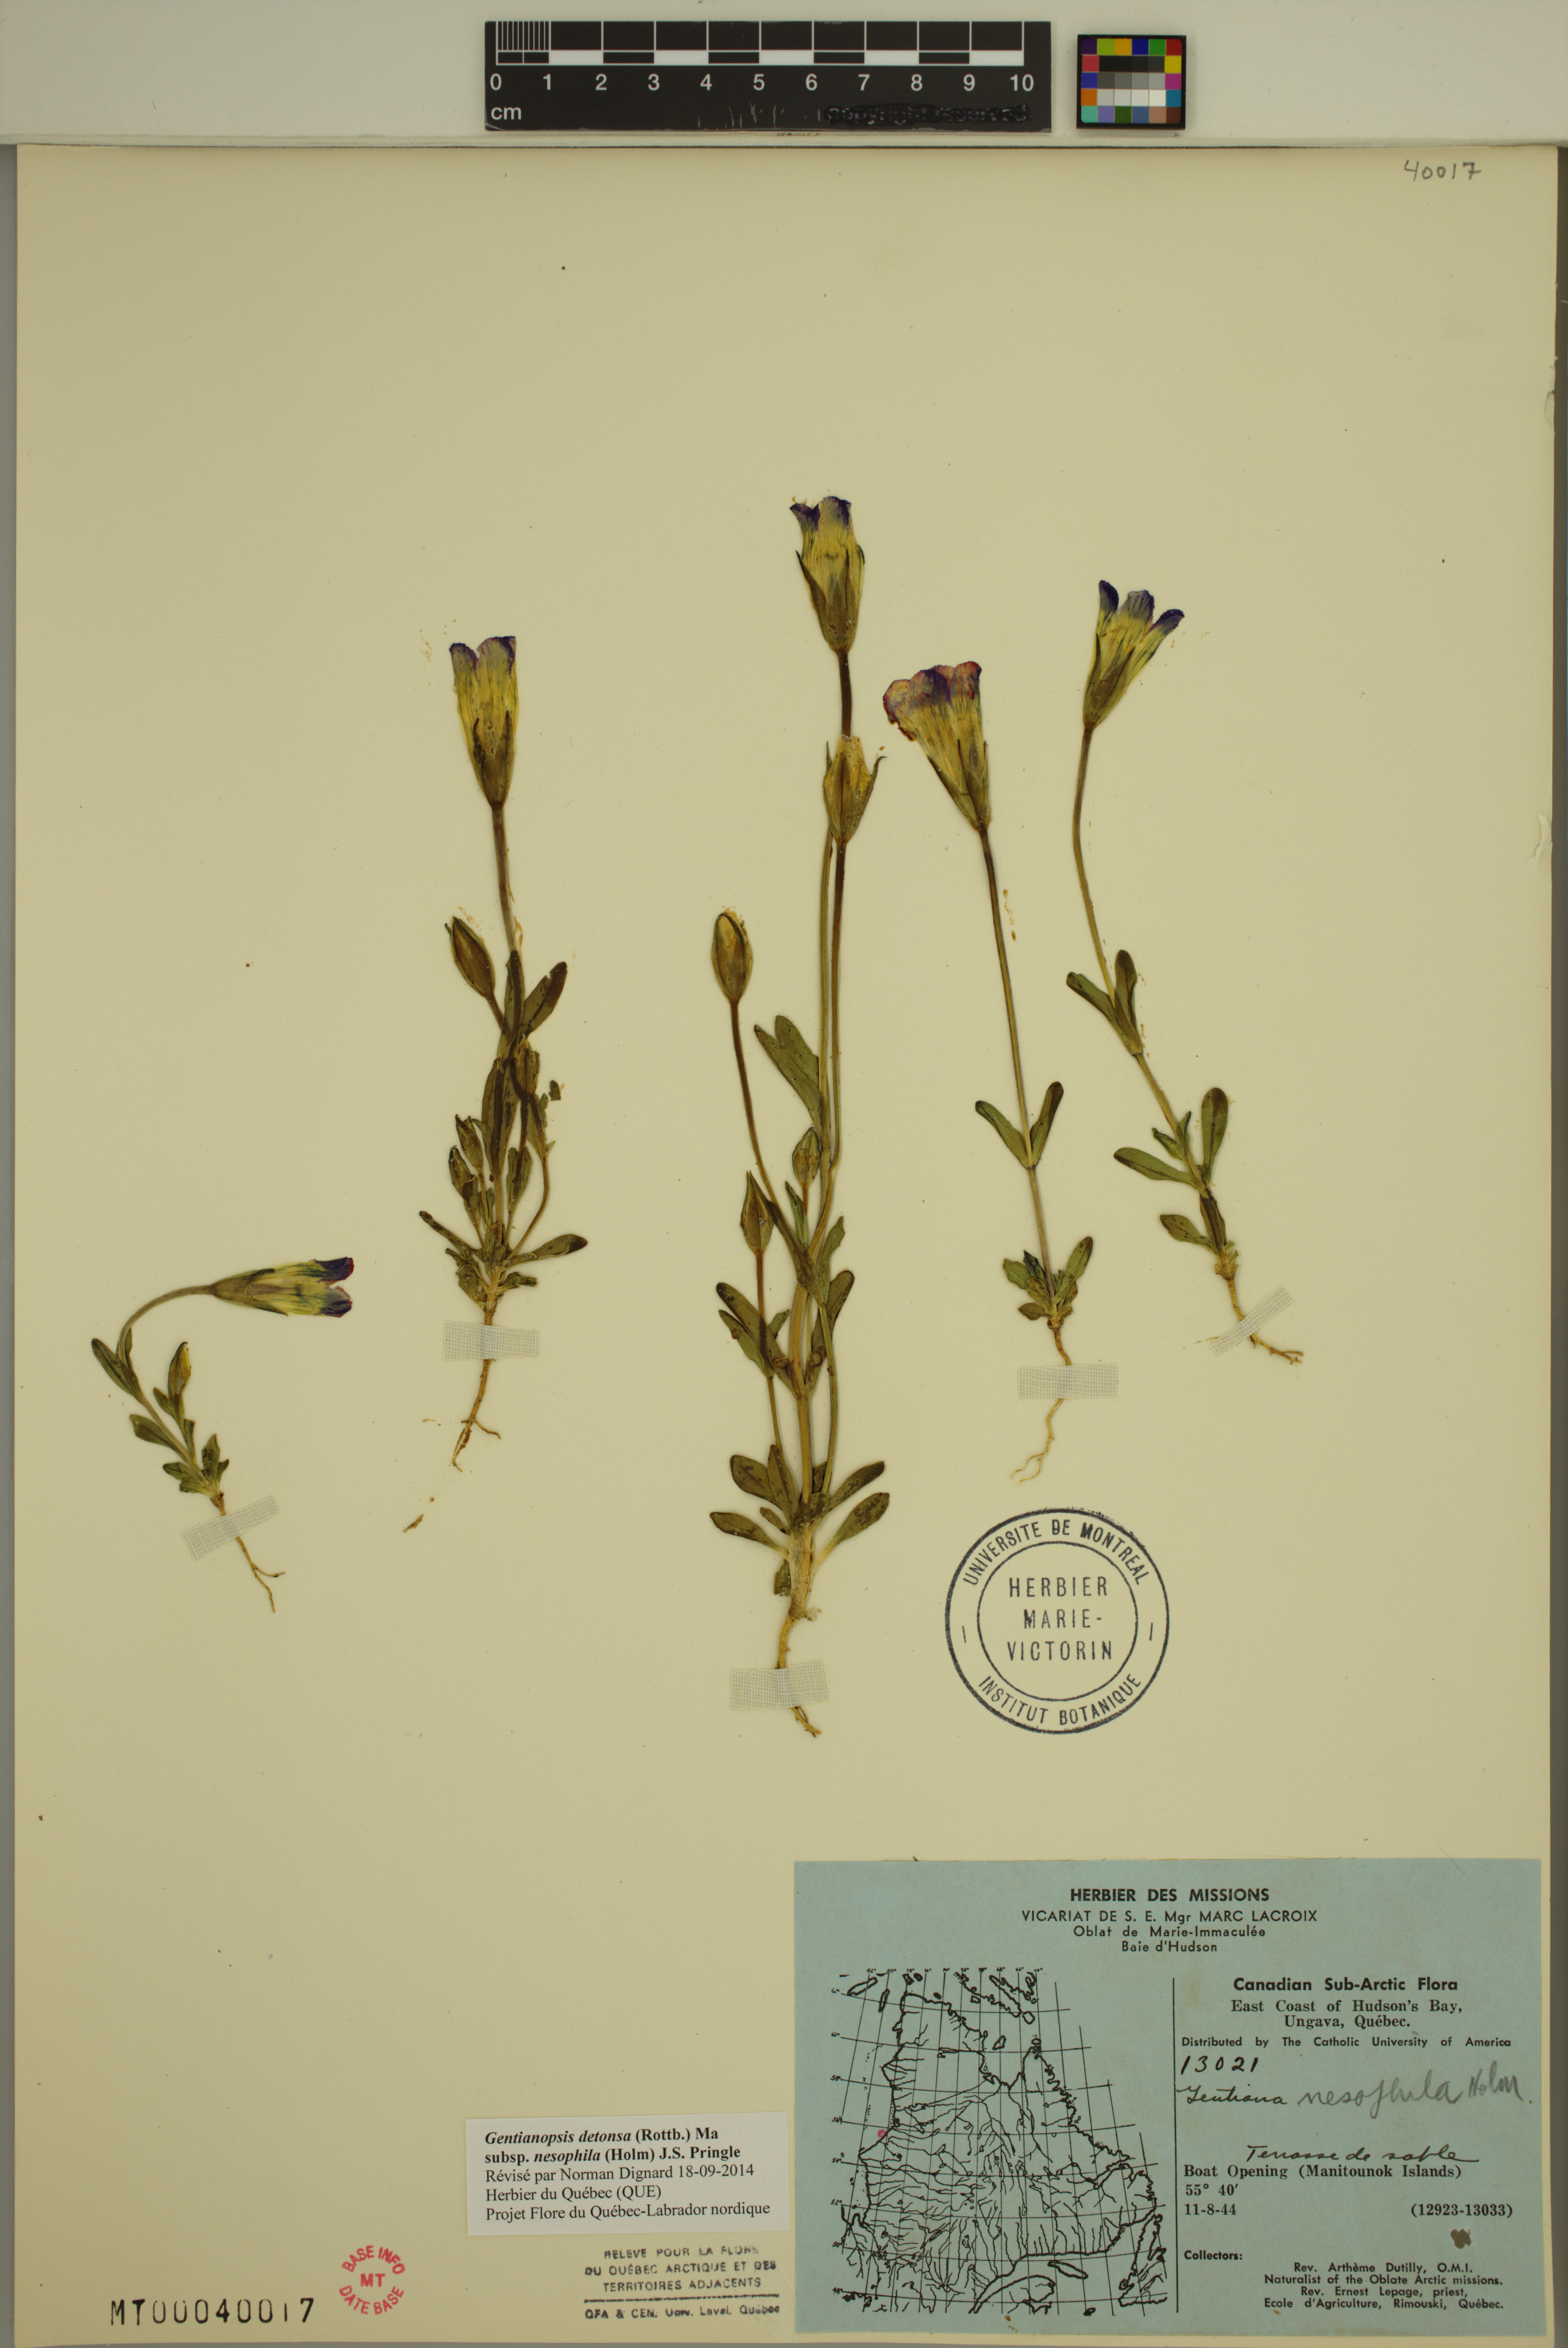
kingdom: Plantae
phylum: Tracheophyta
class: Magnoliopsida
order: Gentianales
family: Gentianaceae
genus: Gentianopsis
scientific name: Gentianopsis nesophila
